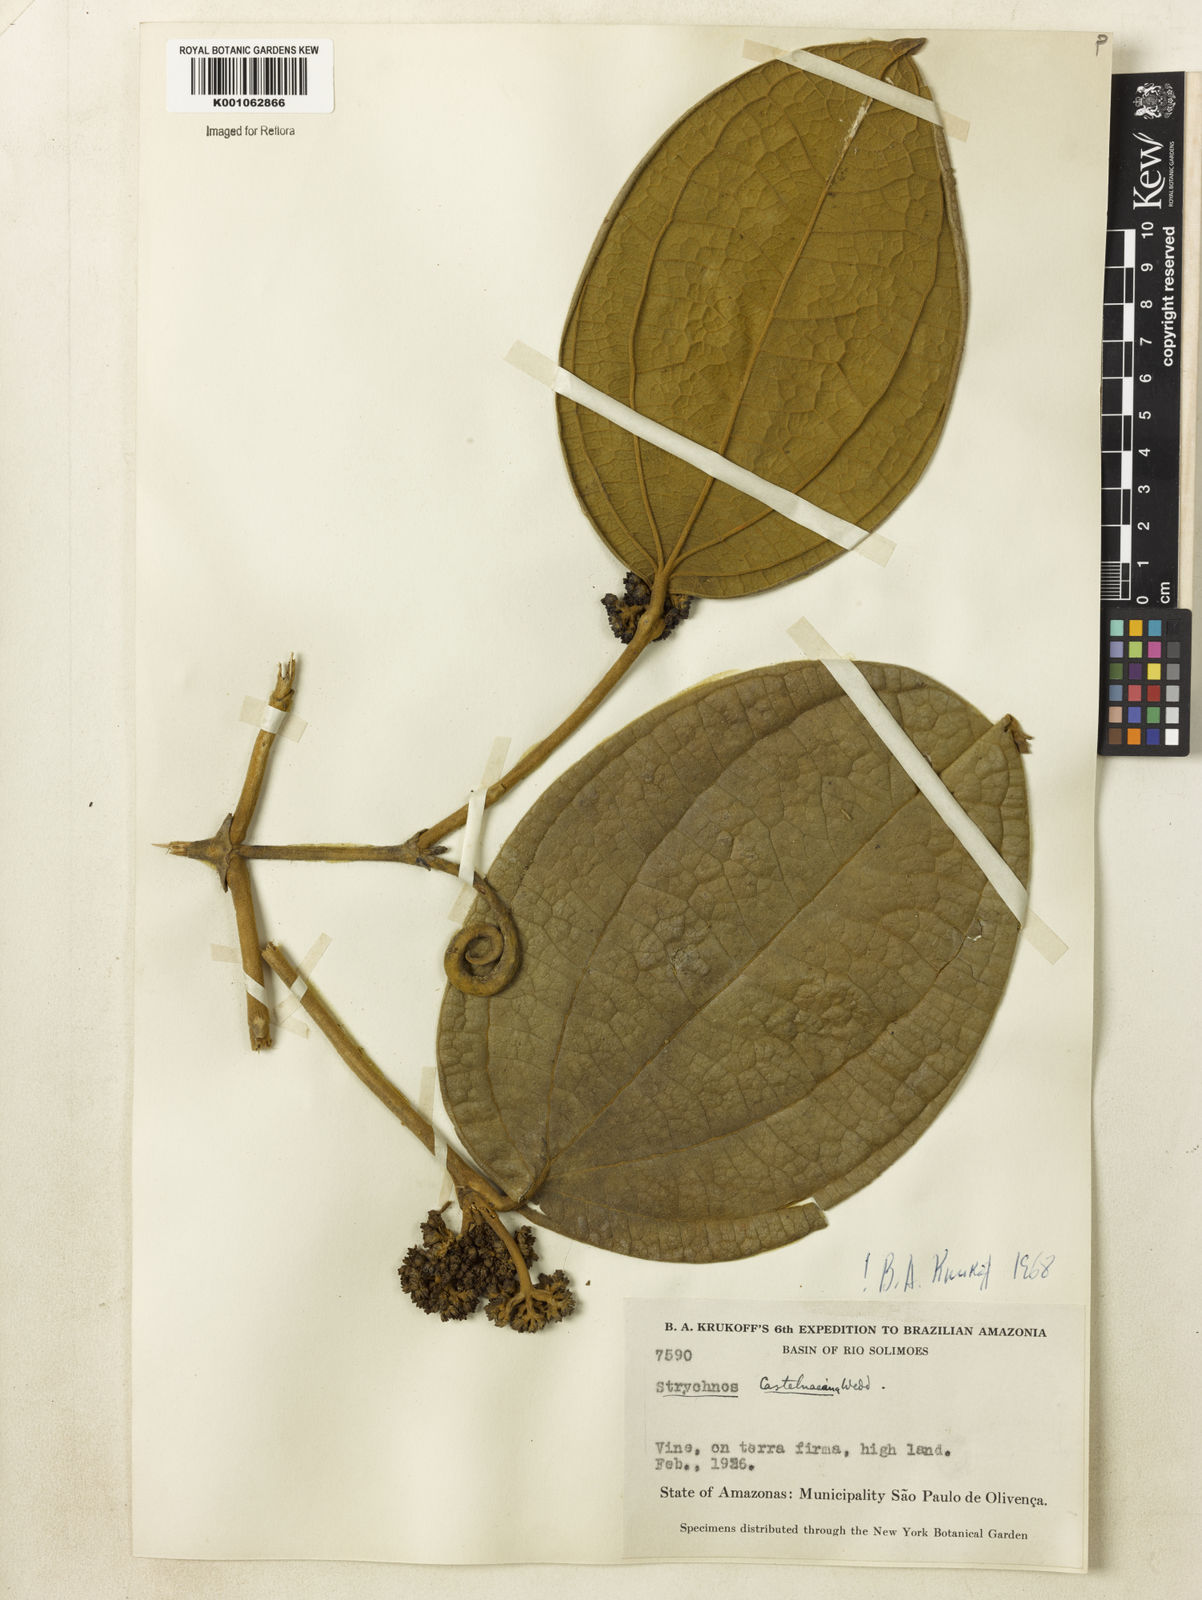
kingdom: Plantae
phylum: Tracheophyta
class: Magnoliopsida
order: Gentianales
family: Loganiaceae
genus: Strychnos
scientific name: Strychnos
